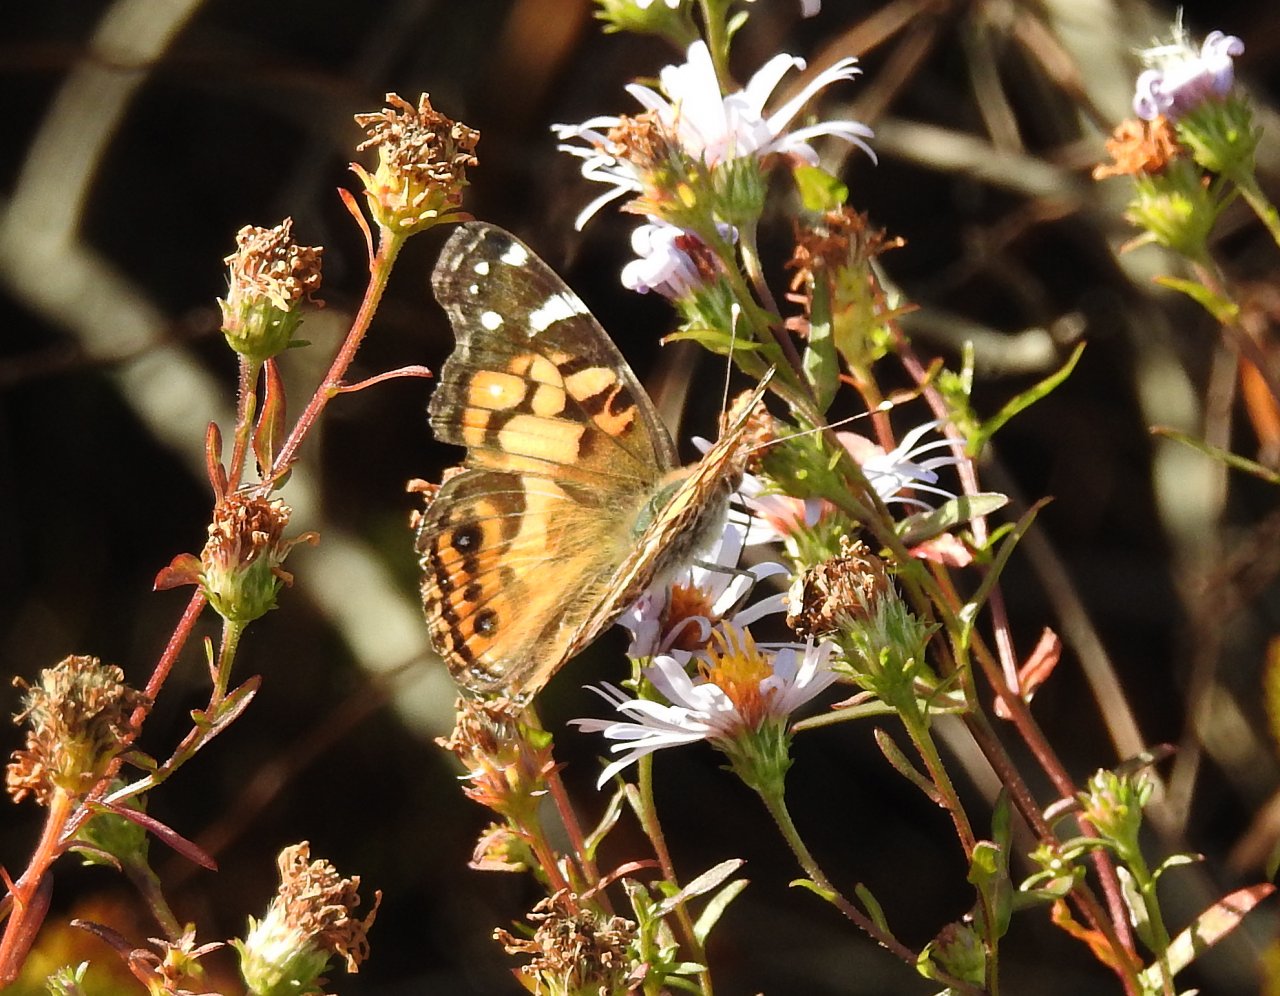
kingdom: Animalia
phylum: Arthropoda
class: Insecta
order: Lepidoptera
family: Nymphalidae
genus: Vanessa
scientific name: Vanessa virginiensis
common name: American Lady
